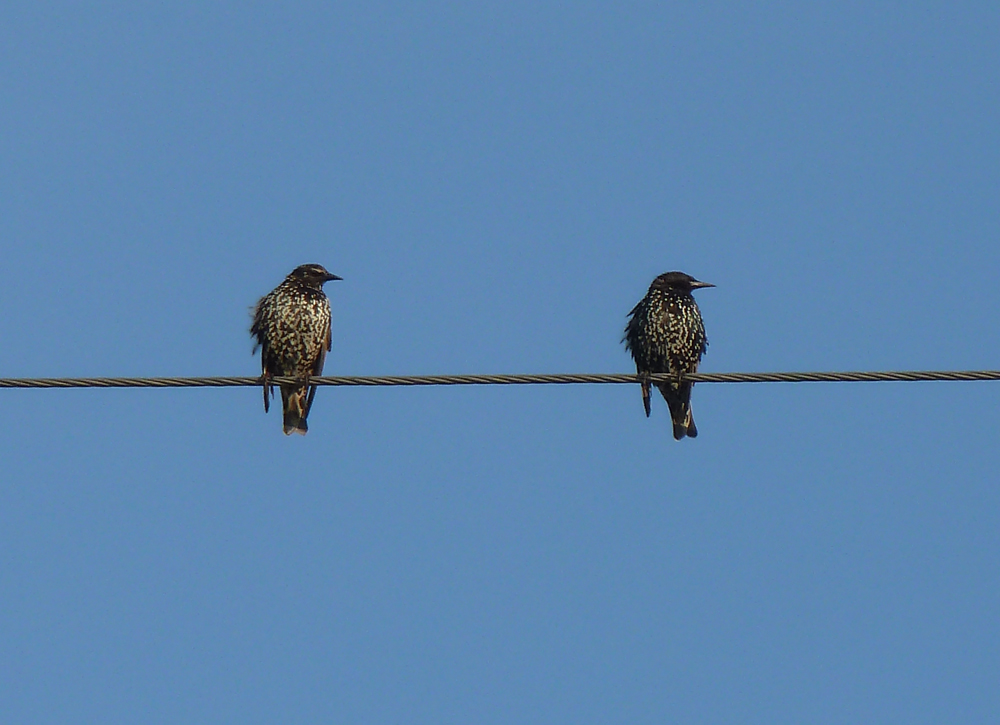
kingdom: Animalia
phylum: Chordata
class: Aves
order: Passeriformes
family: Sturnidae
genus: Sturnus
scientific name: Sturnus vulgaris
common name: Common starling
